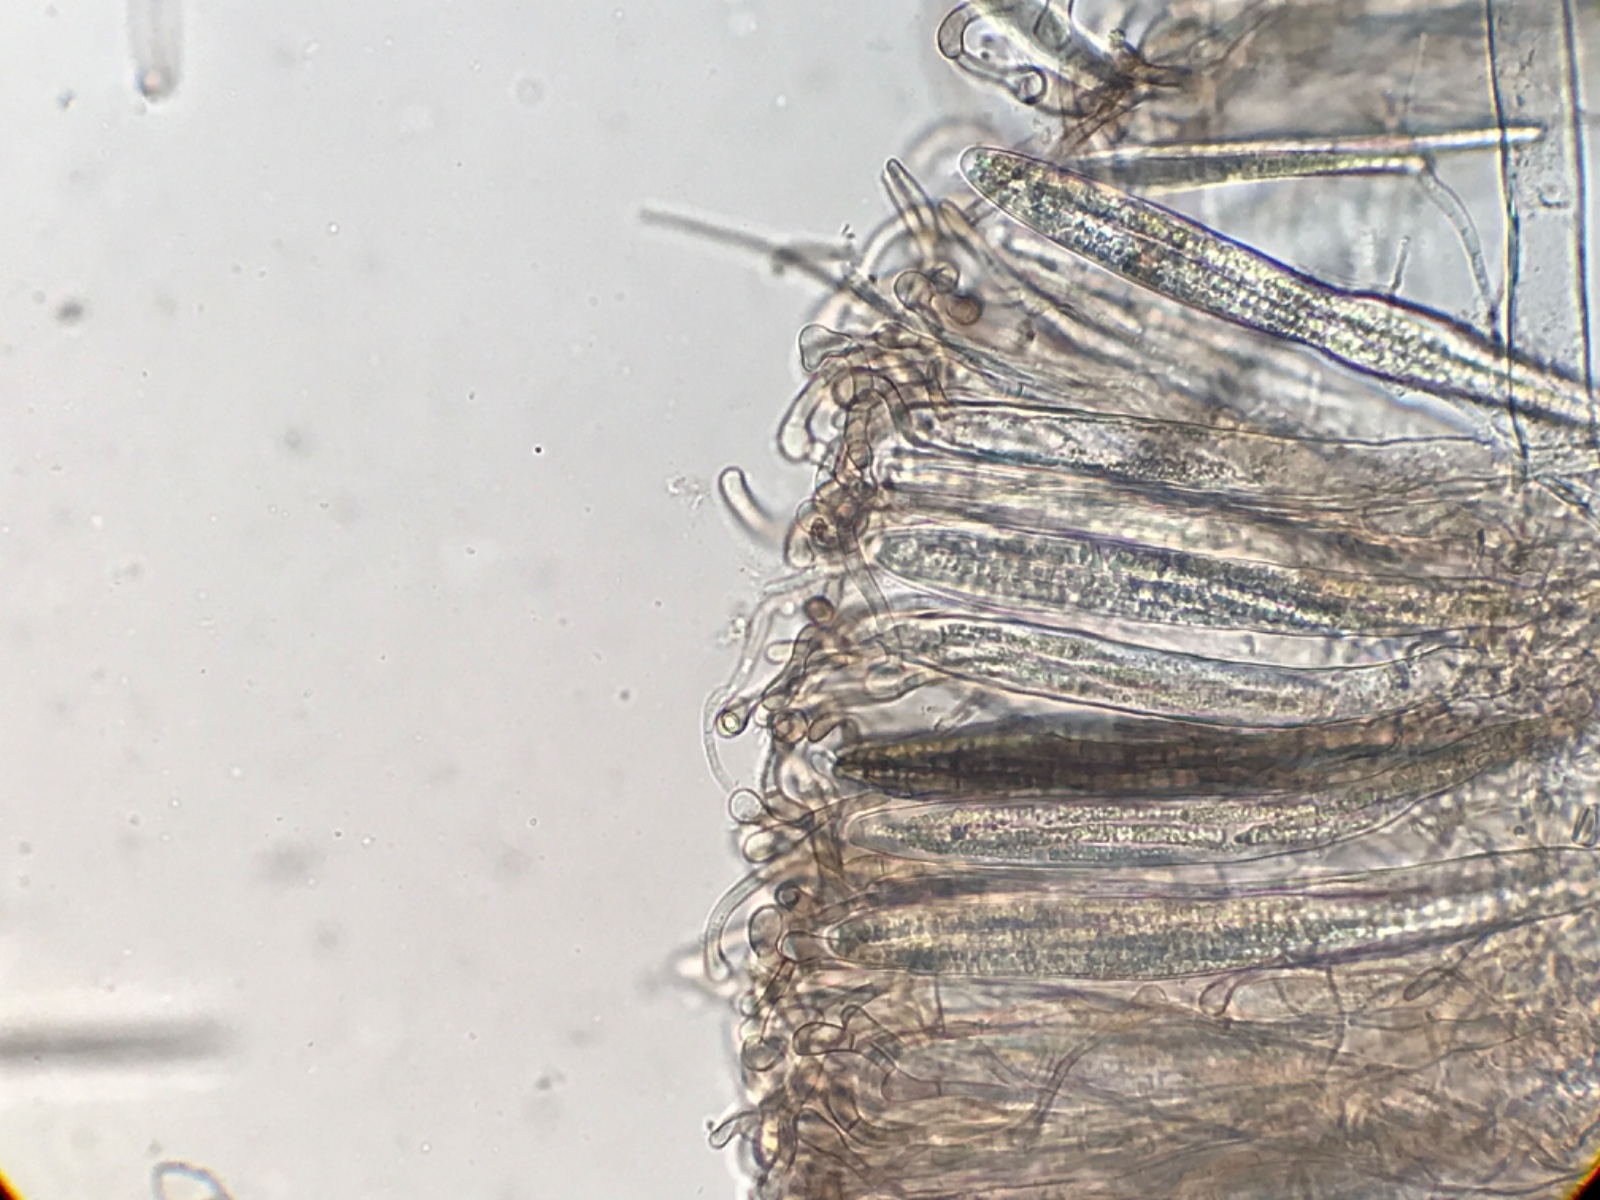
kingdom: Fungi
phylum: Ascomycota
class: Geoglossomycetes
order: Geoglossales
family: Geoglossaceae
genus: Geoglossum
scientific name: Geoglossum fallax
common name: småskællet jordtunge
